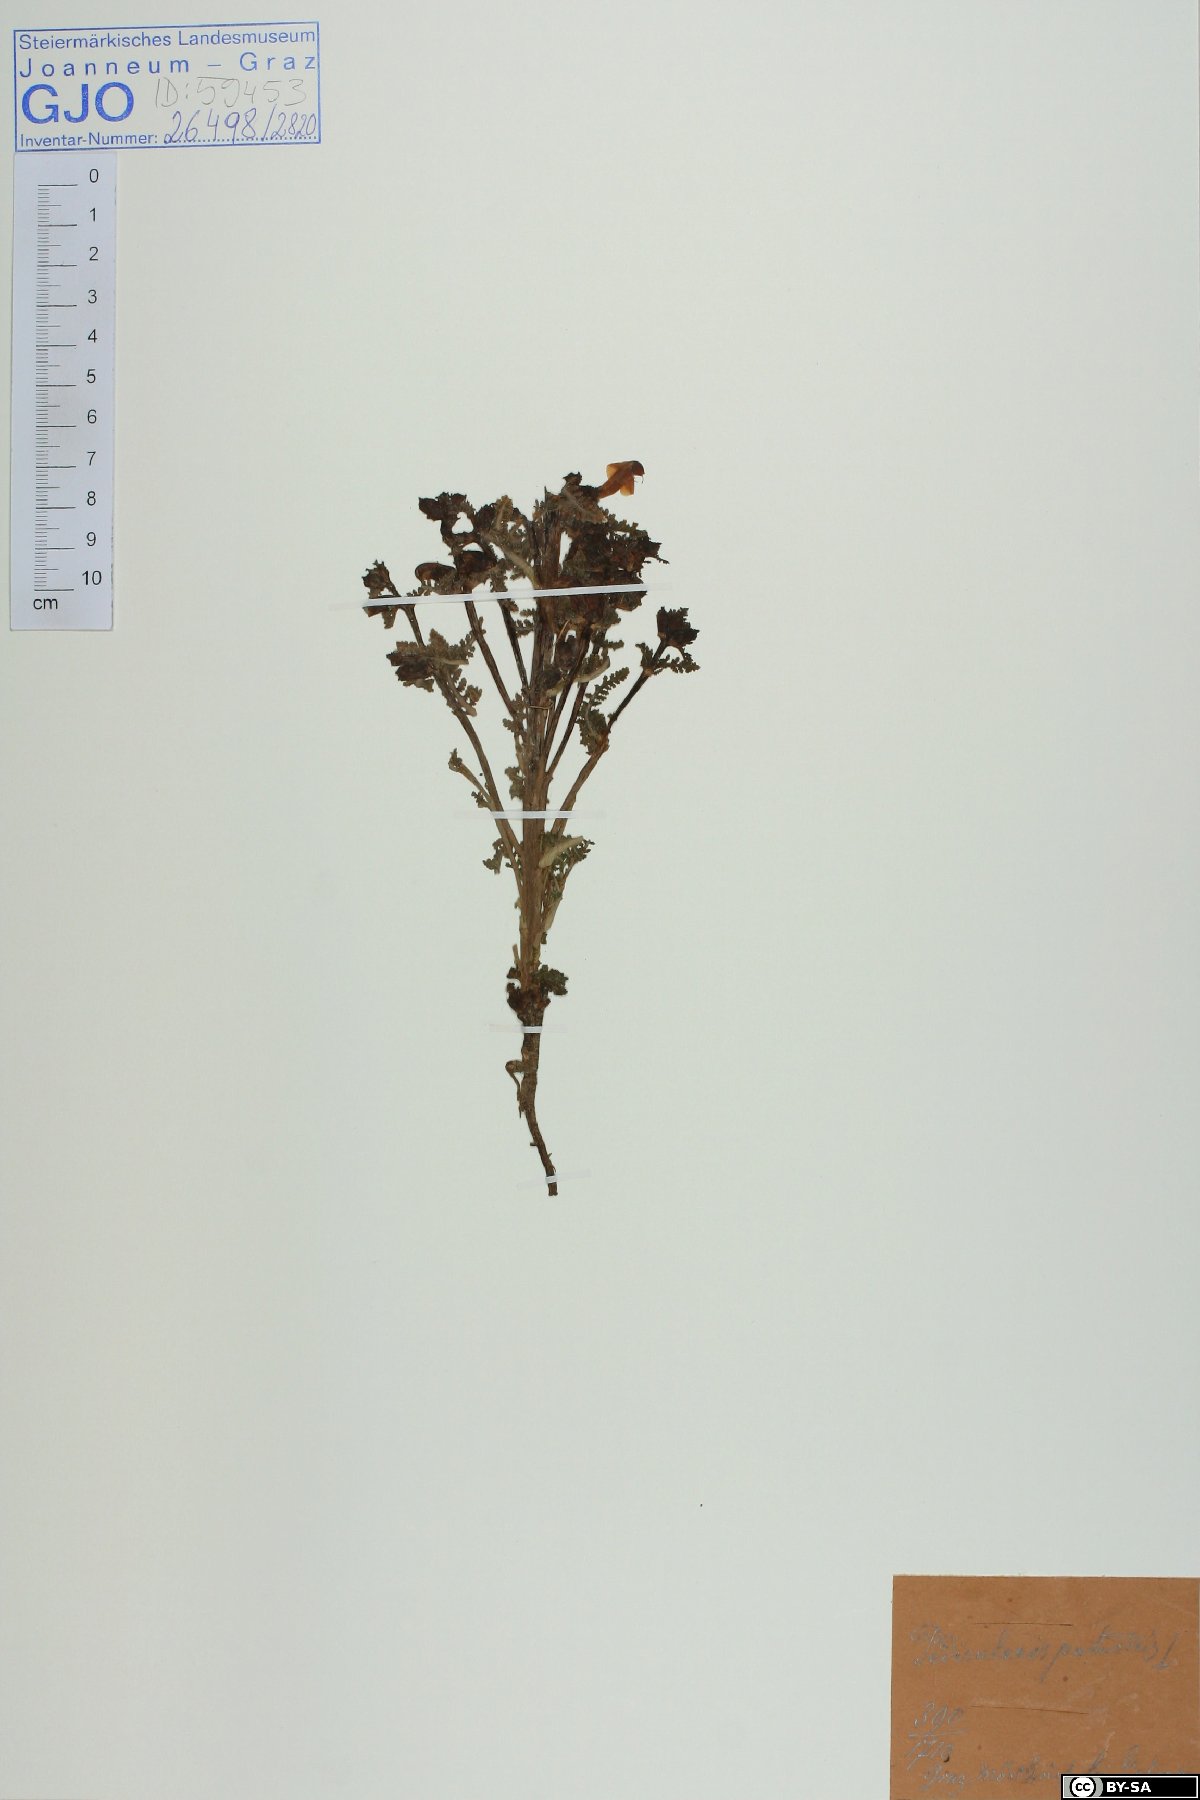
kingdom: Plantae
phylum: Tracheophyta
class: Magnoliopsida
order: Lamiales
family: Orobanchaceae
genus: Pedicularis
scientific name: Pedicularis palustris
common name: Marsh lousewort
